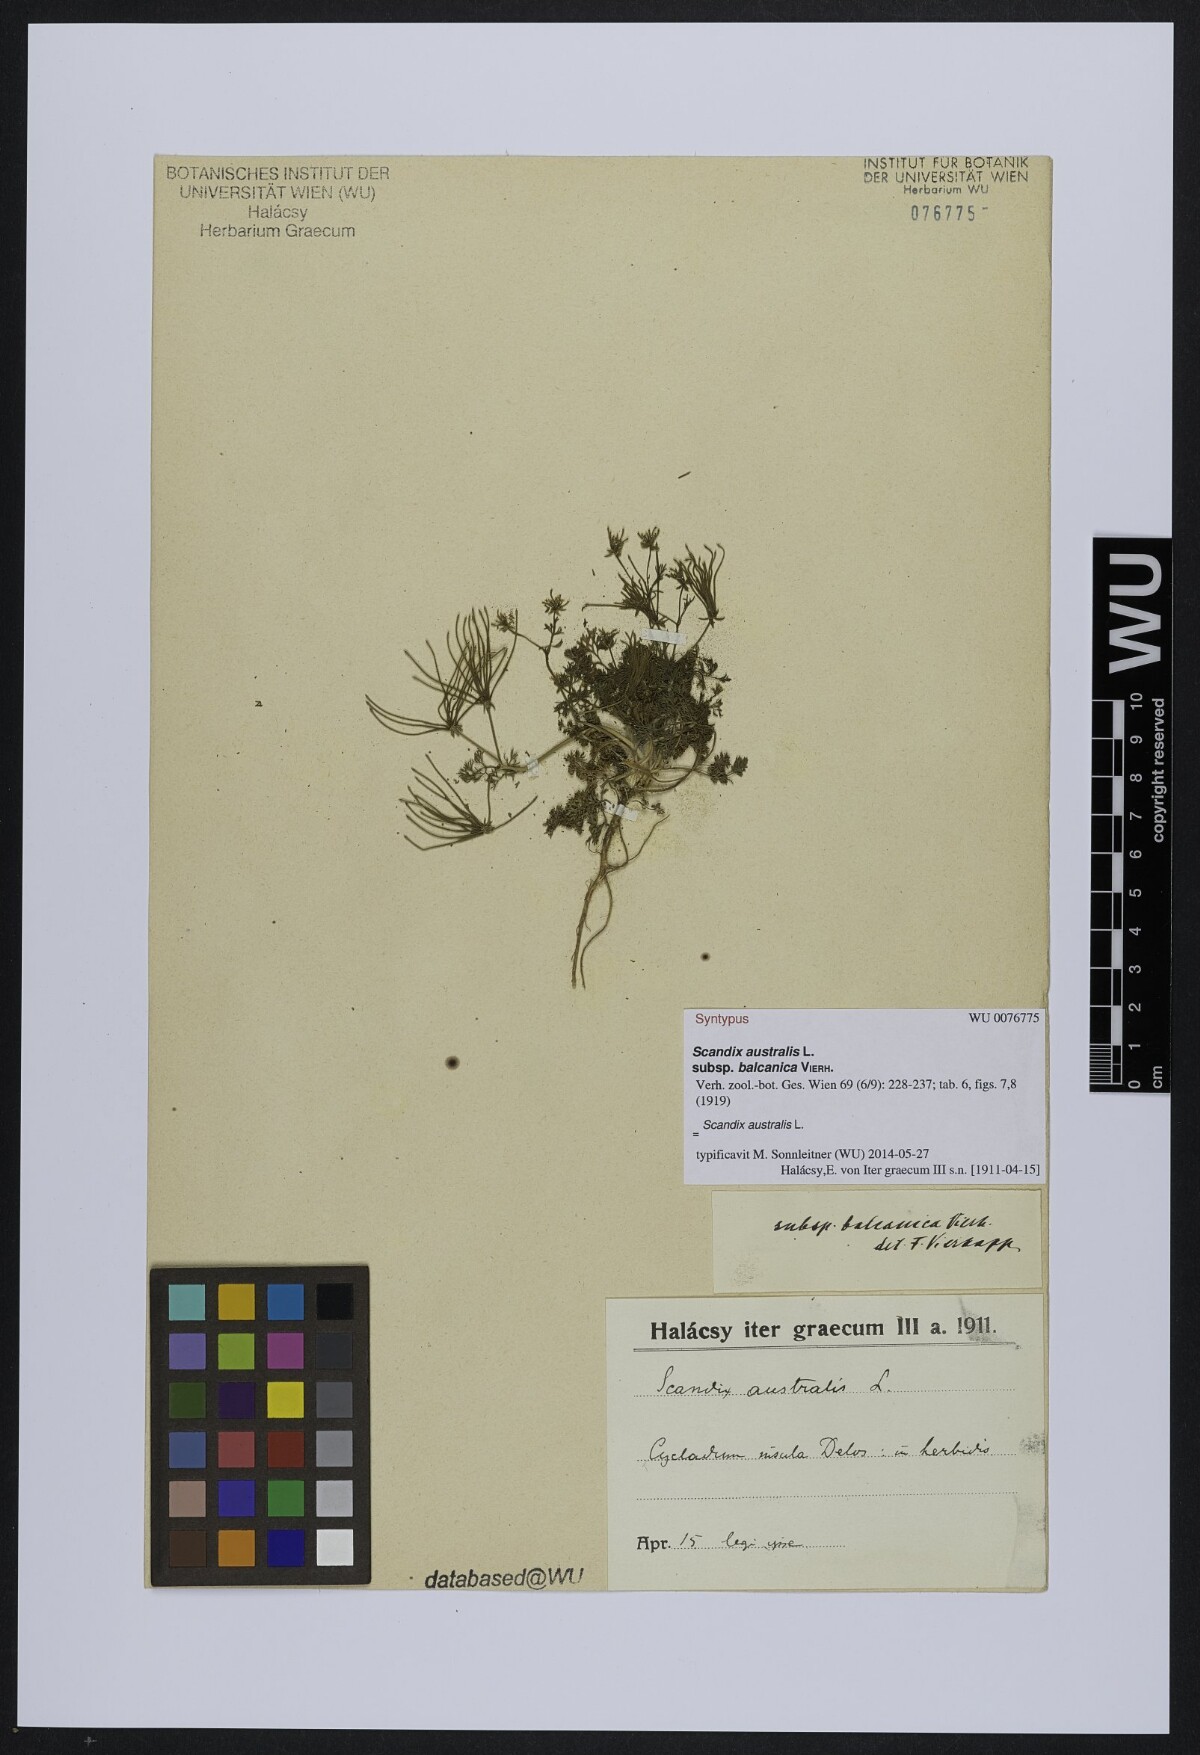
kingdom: Plantae
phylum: Tracheophyta
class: Magnoliopsida
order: Apiales
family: Apiaceae
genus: Scandix
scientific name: Scandix australis
